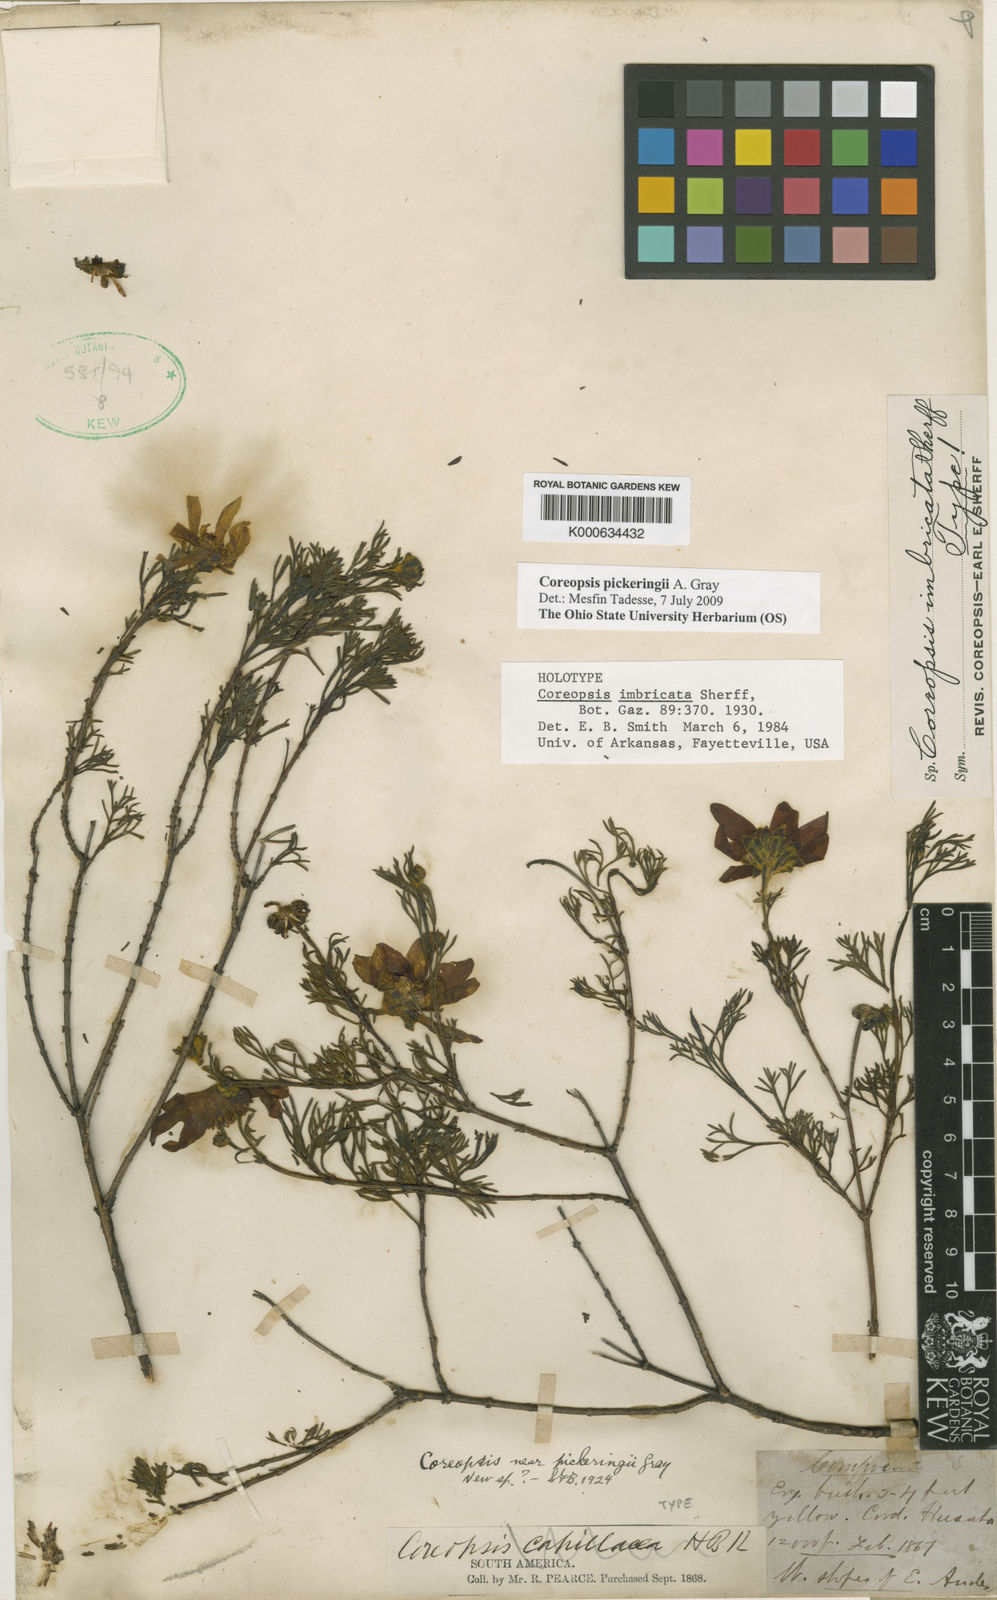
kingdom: Plantae
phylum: Tracheophyta
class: Magnoliopsida
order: Asterales
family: Asteraceae
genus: Coreopsis
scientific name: Coreopsis pickeringii
